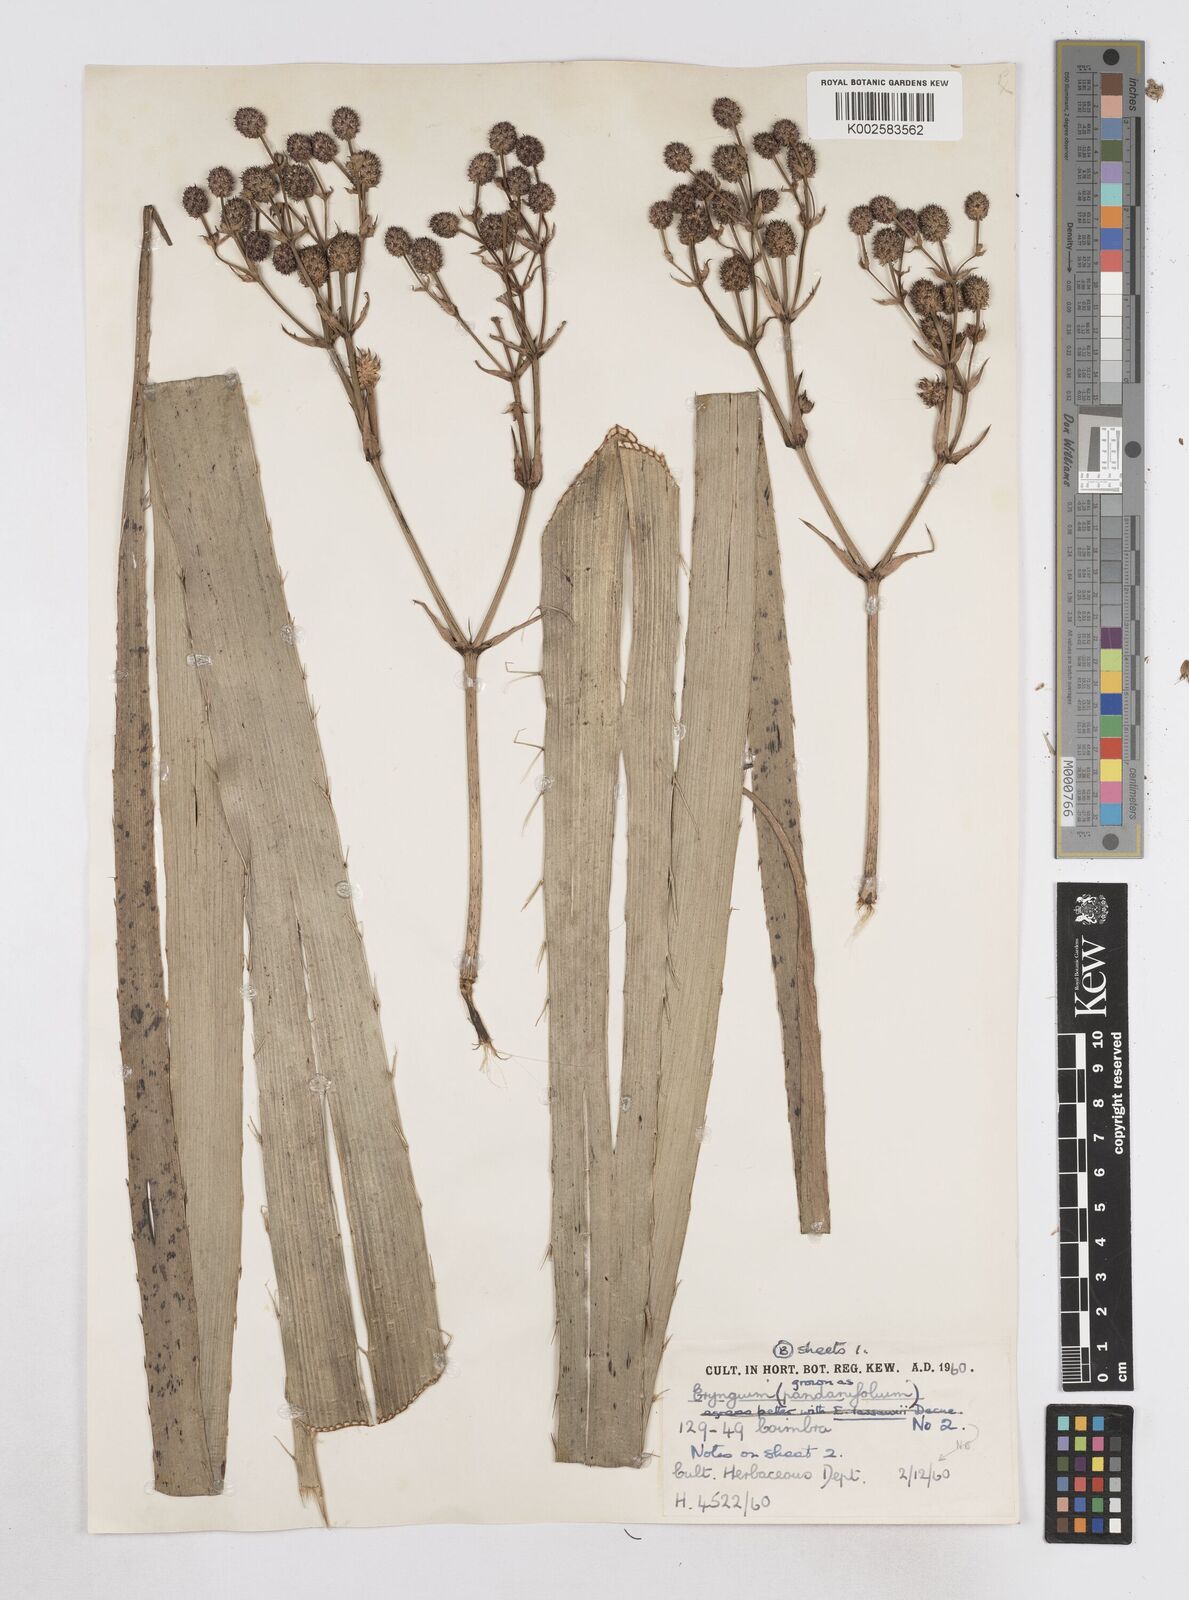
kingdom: Plantae
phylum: Tracheophyta
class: Magnoliopsida
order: Apiales
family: Apiaceae
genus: Eryngium
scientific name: Eryngium pandanifolium
